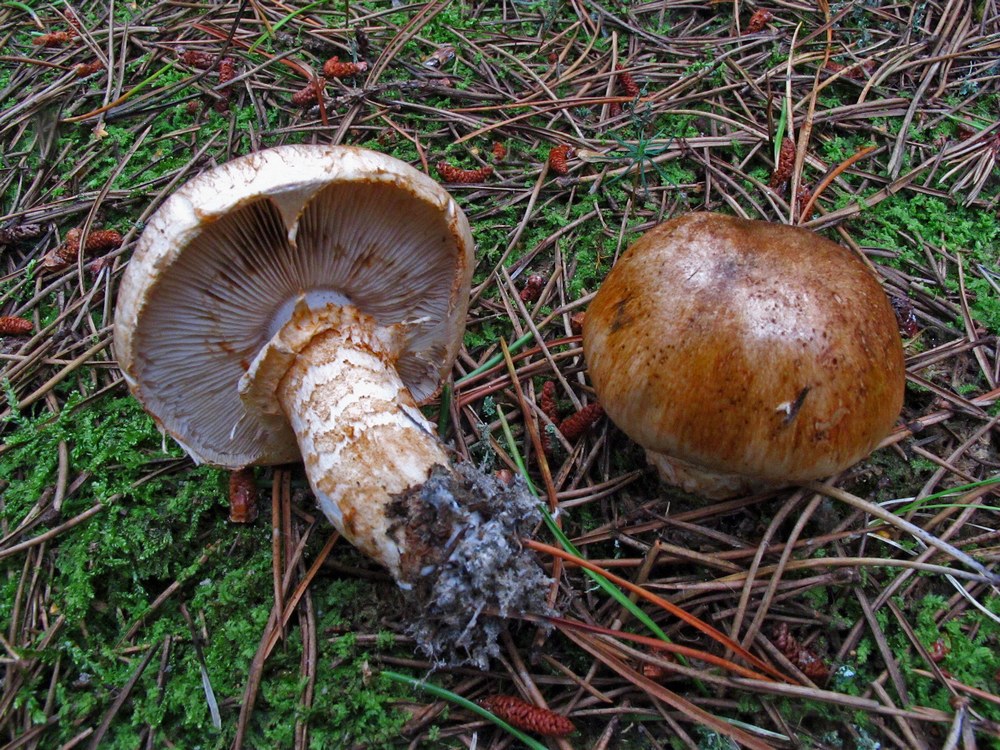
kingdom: Fungi
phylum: Basidiomycota
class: Agaricomycetes
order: Agaricales
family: Tricholomataceae
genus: Tricholoma
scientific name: Tricholoma focale
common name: halsbånd-ridderhat
